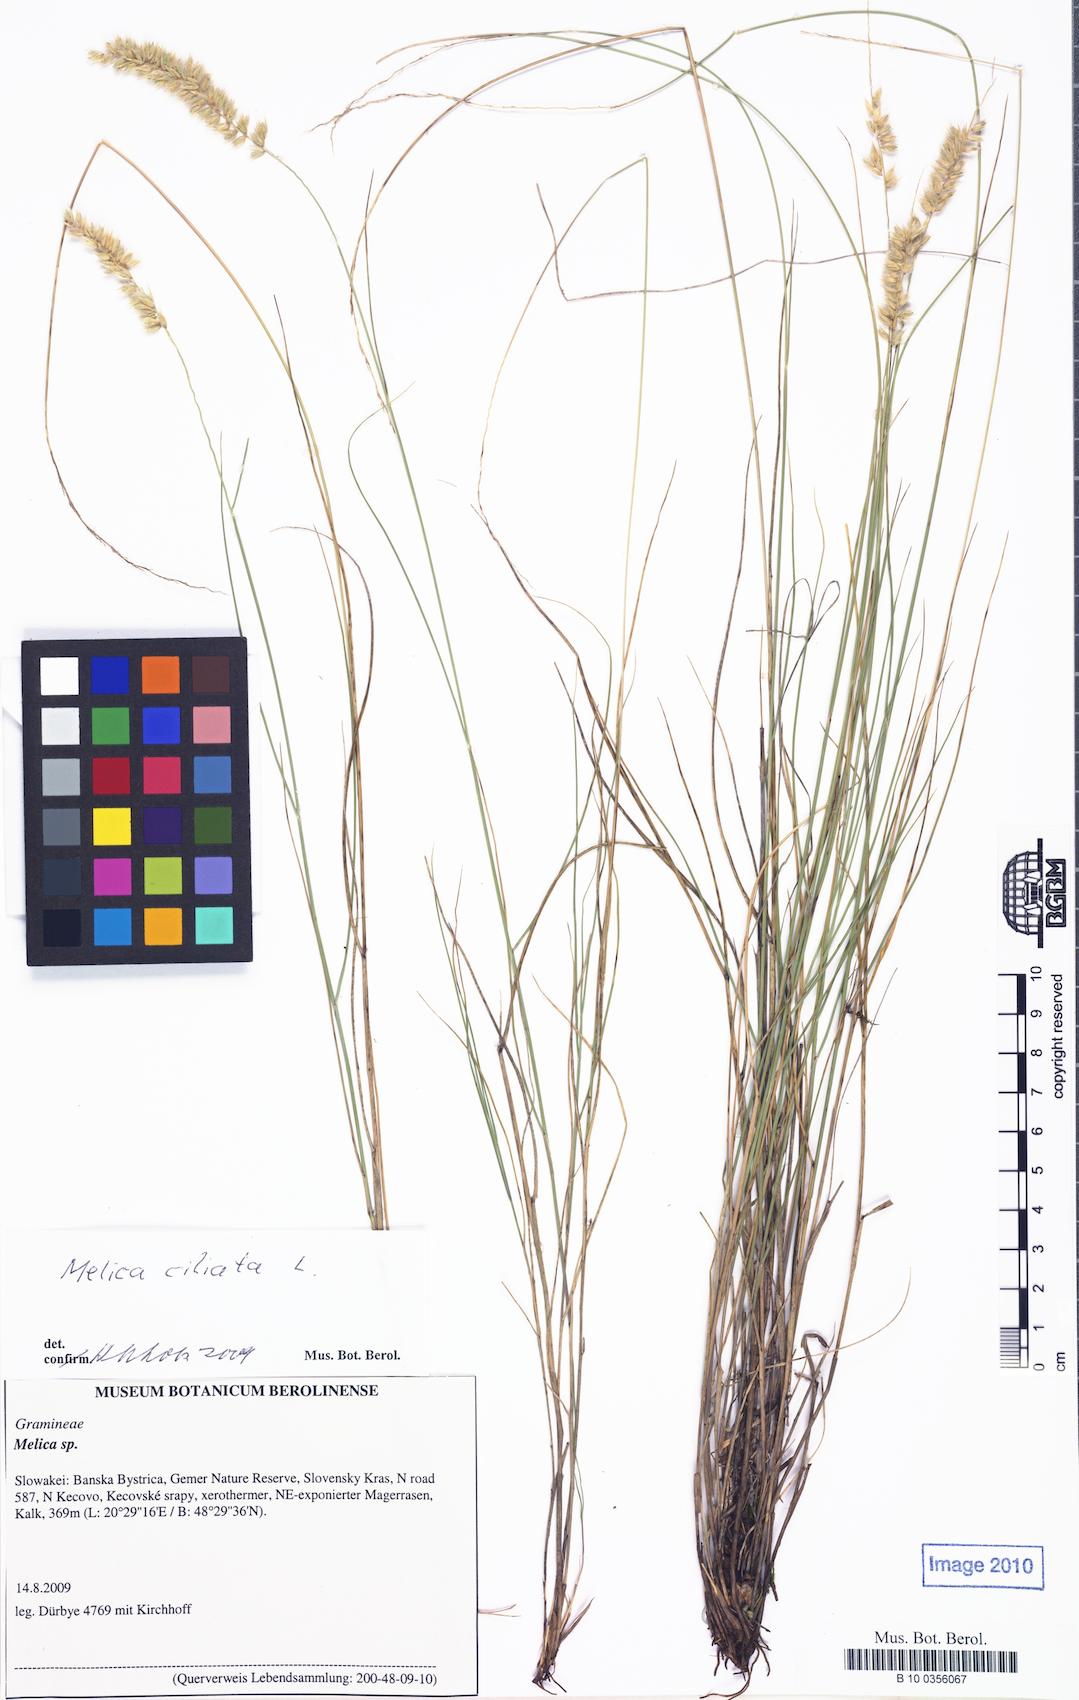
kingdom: Plantae
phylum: Tracheophyta
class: Liliopsida
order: Poales
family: Poaceae
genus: Melica
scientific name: Melica ciliata
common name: Hairy melicgrass
